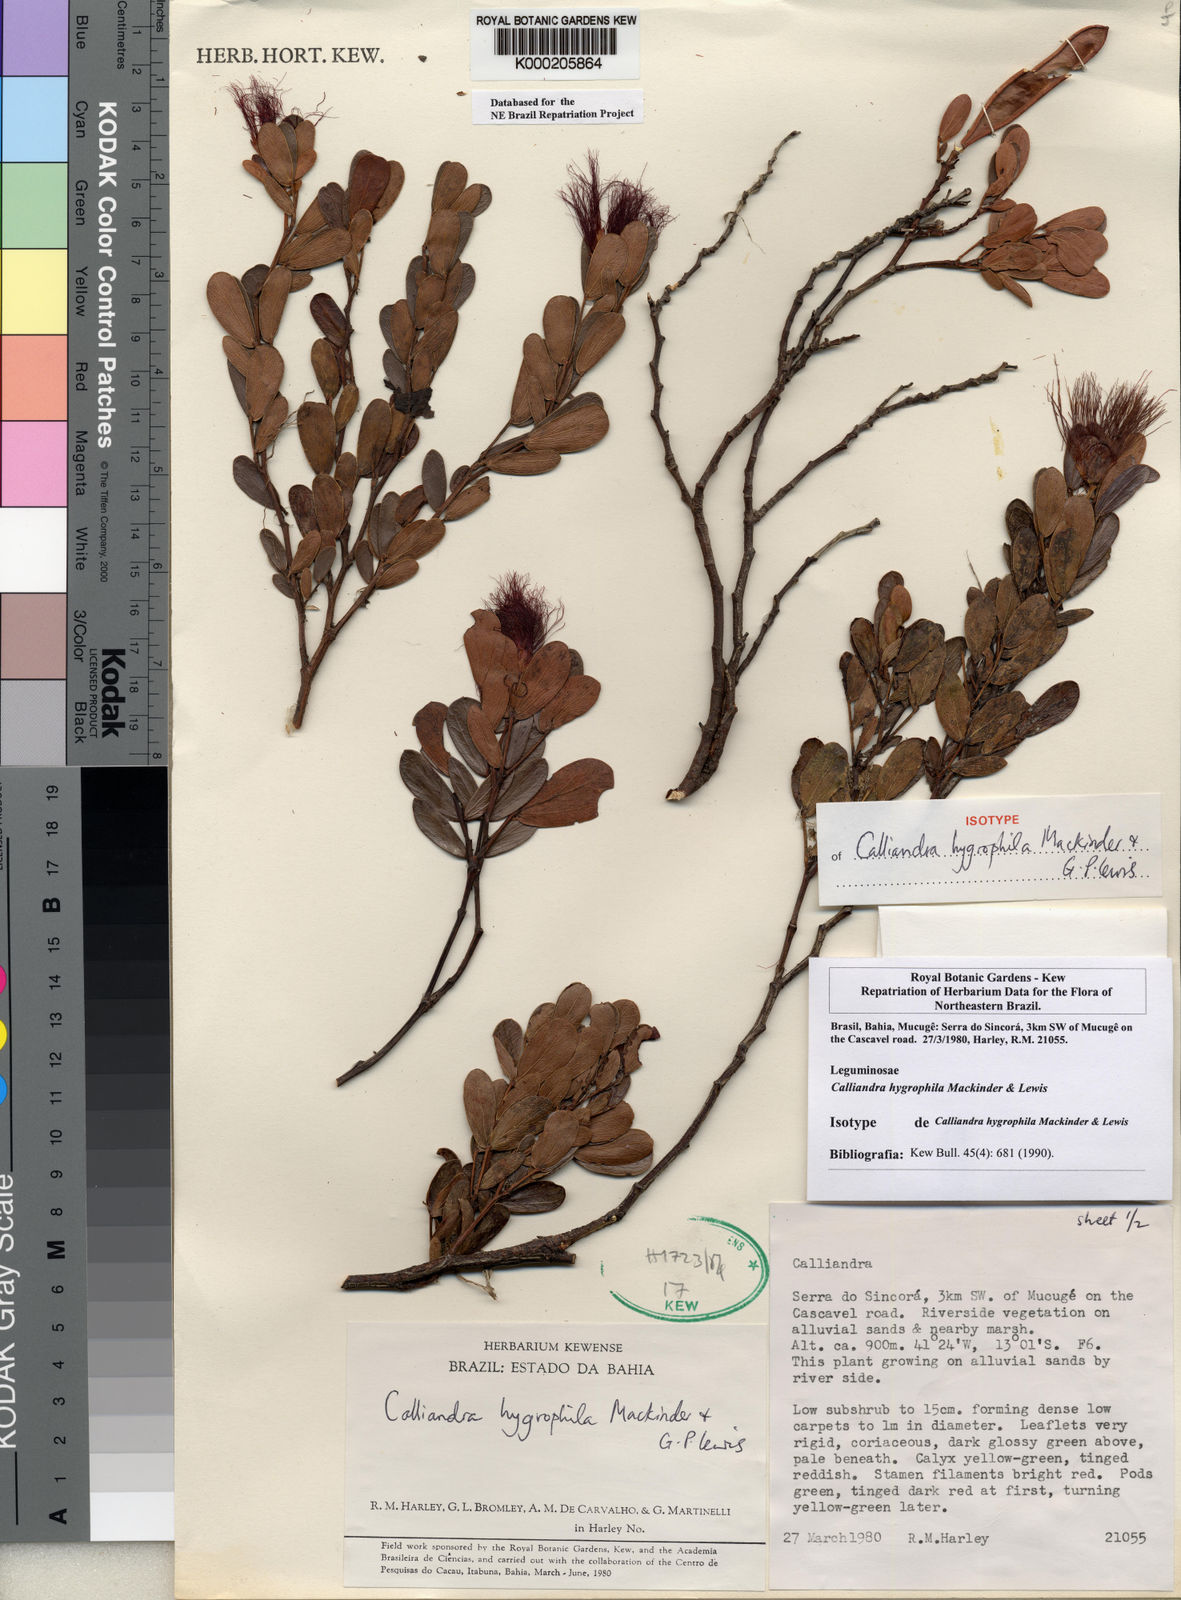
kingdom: Plantae
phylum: Tracheophyta
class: Magnoliopsida
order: Fabales
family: Fabaceae
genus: Calliandra
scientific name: Calliandra hygrophila
